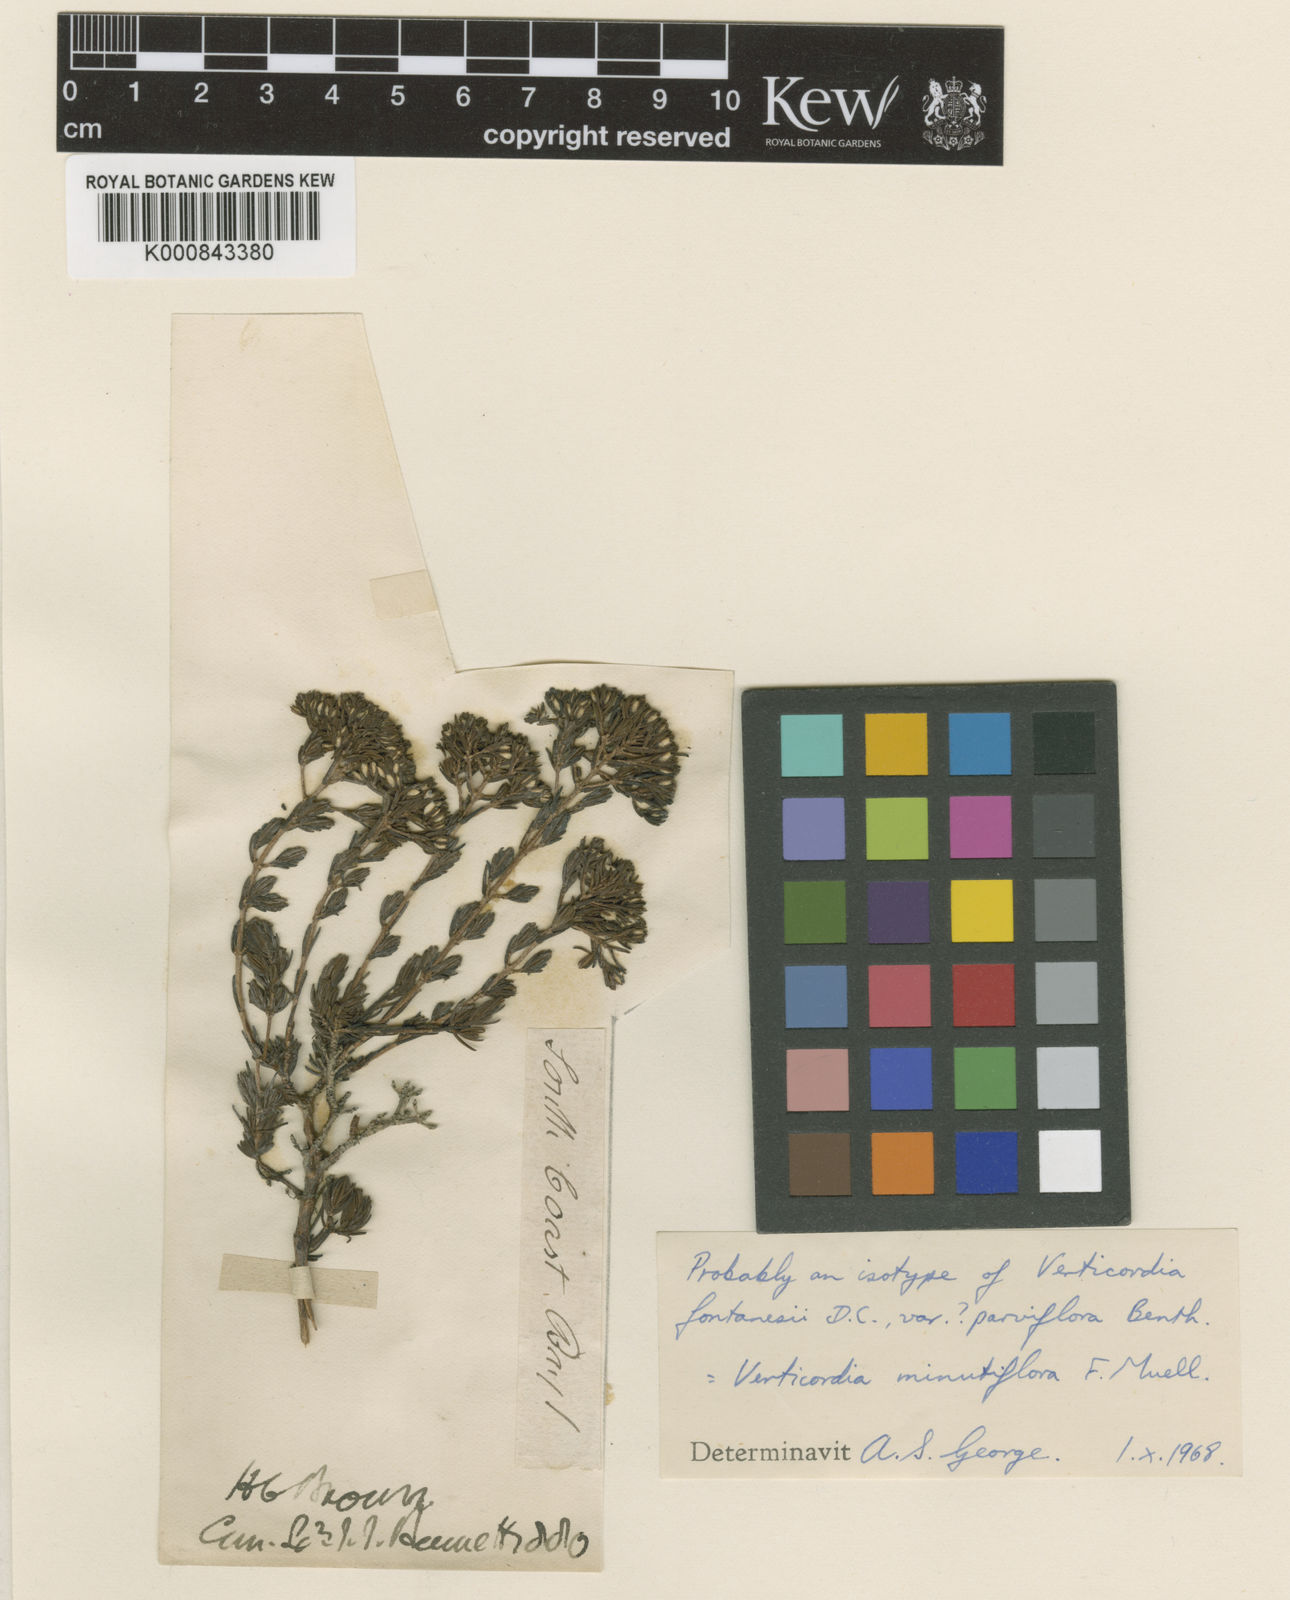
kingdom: Plantae
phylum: Tracheophyta
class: Magnoliopsida
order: Myrtales
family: Myrtaceae
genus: Verticordia
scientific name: Verticordia minutiflora
